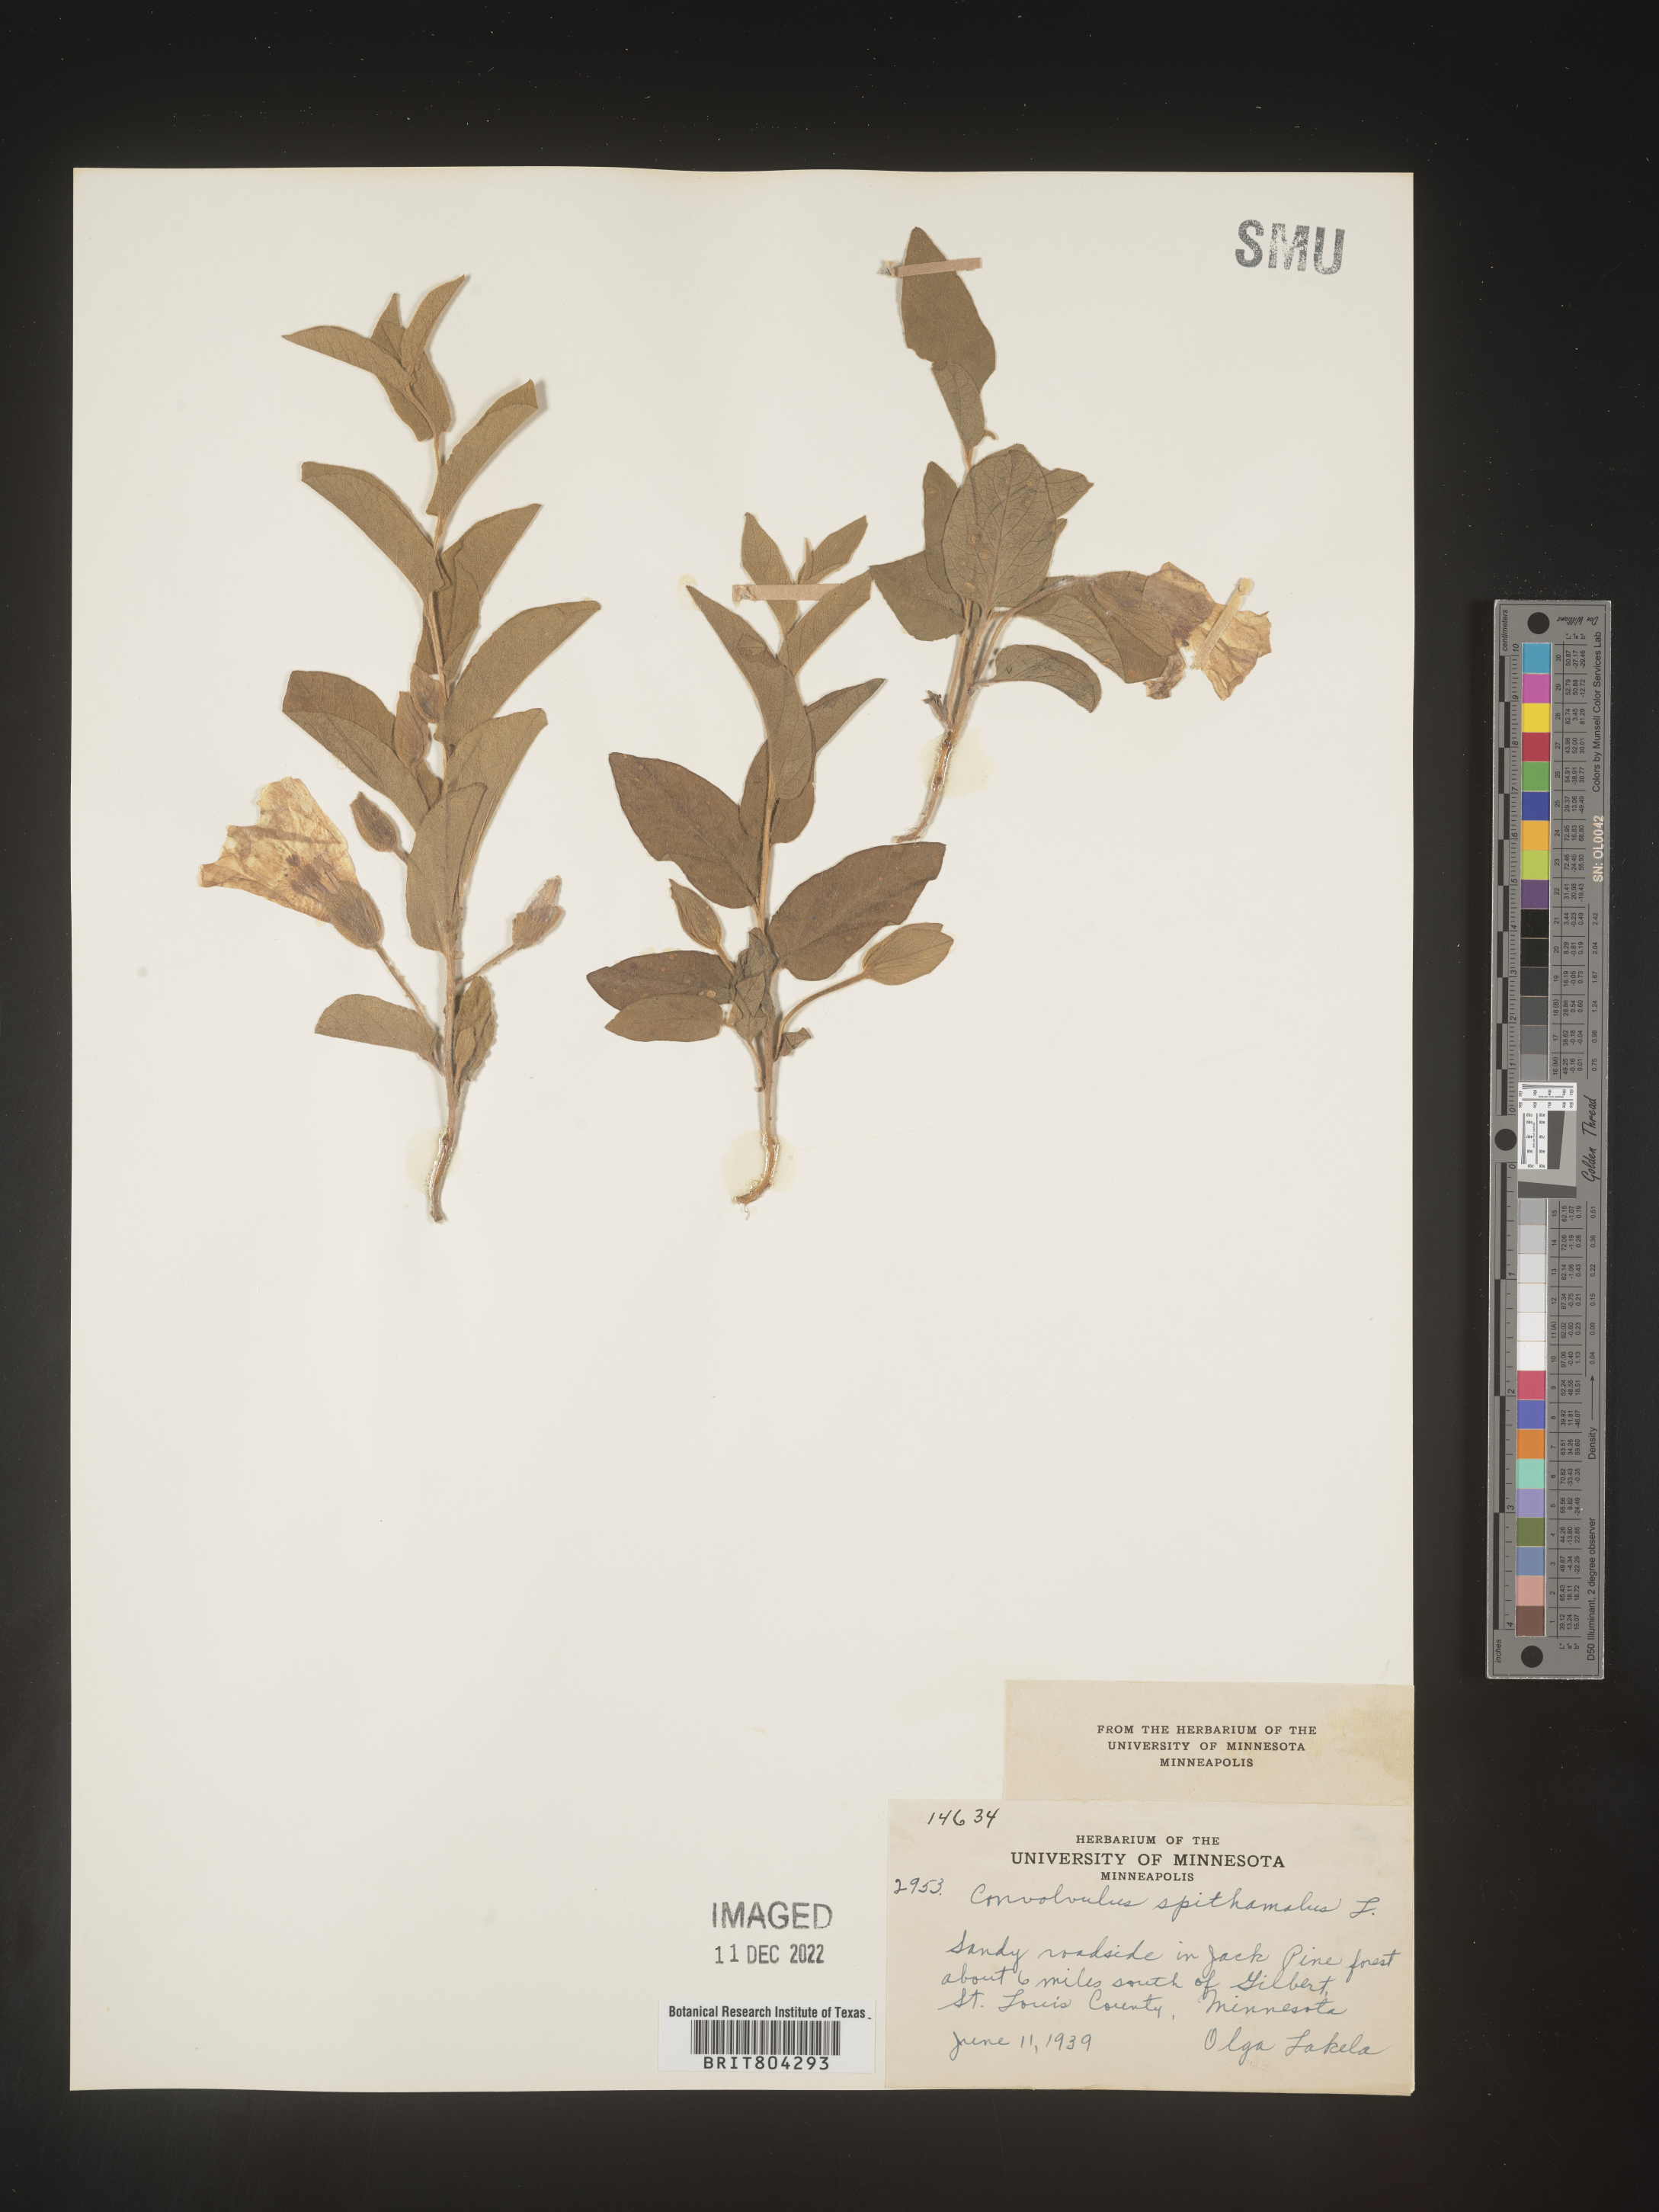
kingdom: Plantae
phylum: Tracheophyta
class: Magnoliopsida
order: Solanales
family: Convolvulaceae
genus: Calystegia
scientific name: Calystegia
